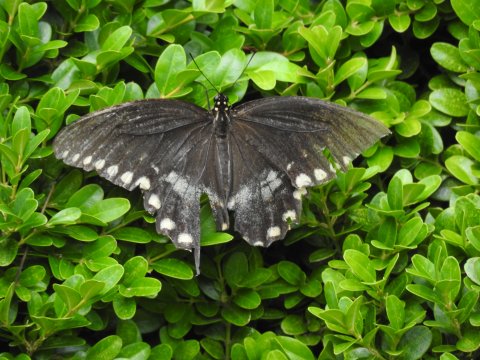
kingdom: Animalia
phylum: Arthropoda
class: Insecta
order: Lepidoptera
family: Papilionidae
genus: Pterourus
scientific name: Pterourus troilus
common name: Spicebush Swallowtail
